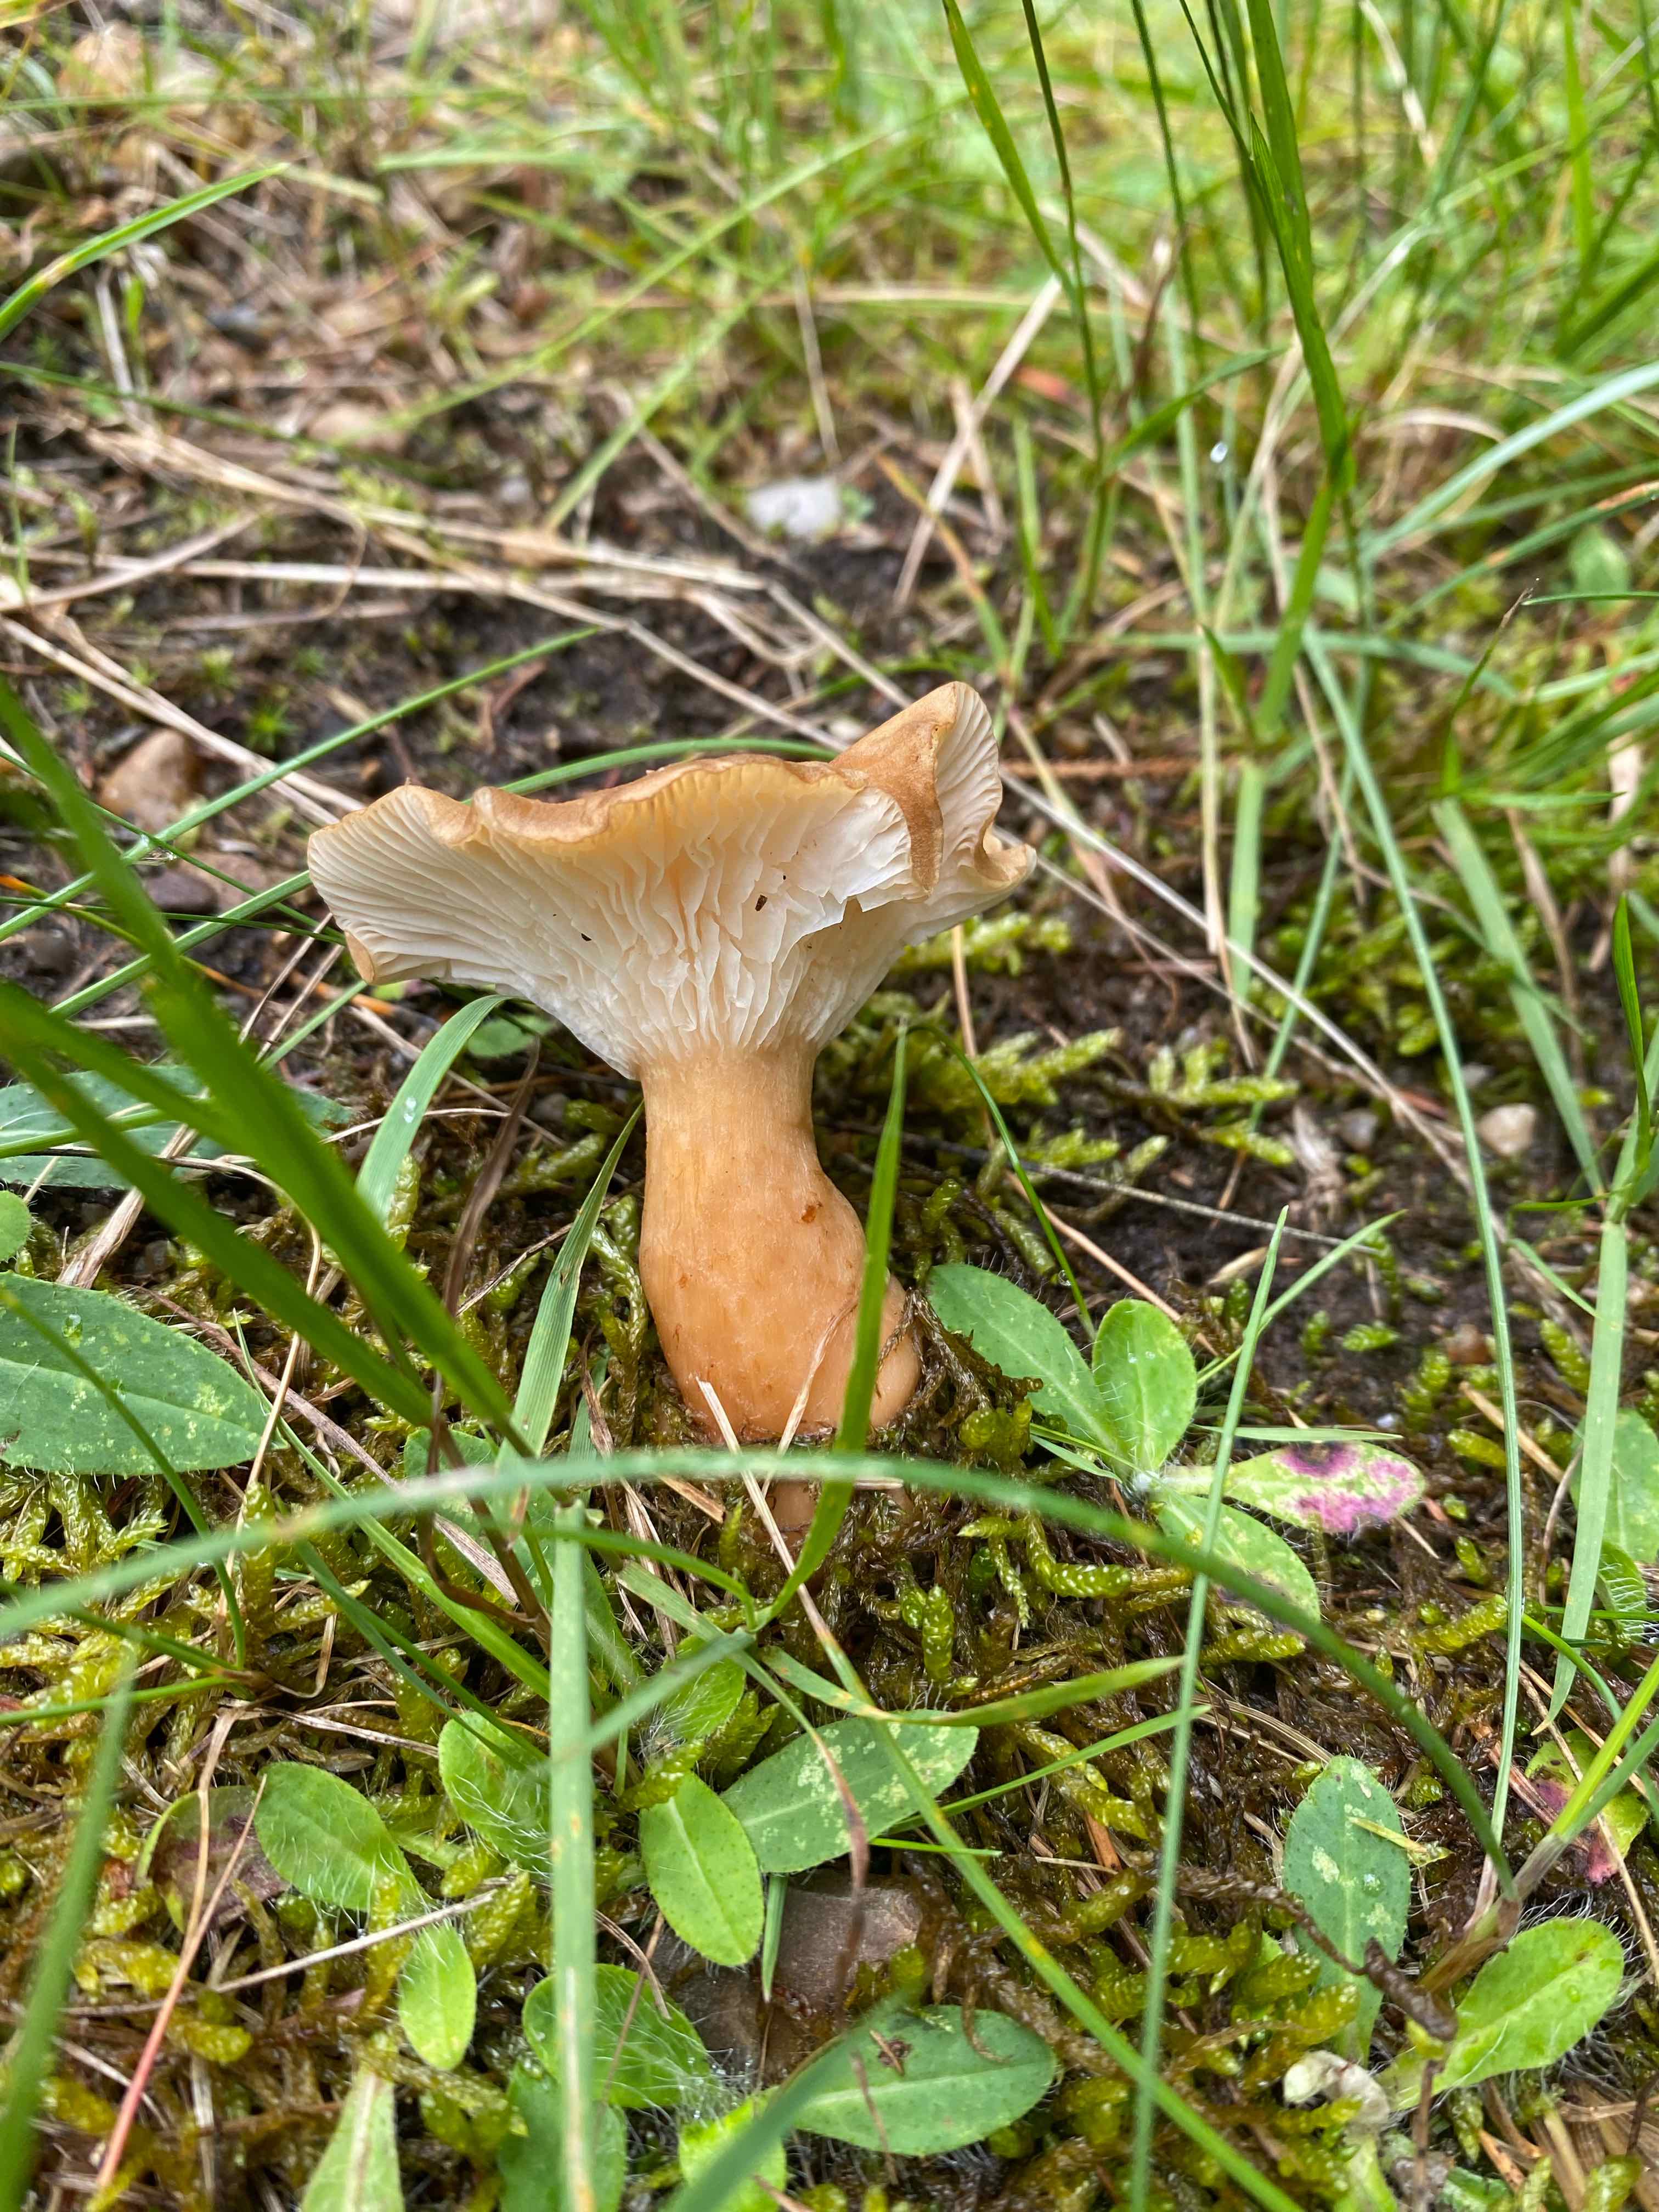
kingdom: Fungi
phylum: Basidiomycota
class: Agaricomycetes
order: Agaricales
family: Tricholomataceae
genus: Infundibulicybe
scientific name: Infundibulicybe
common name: tragthat
